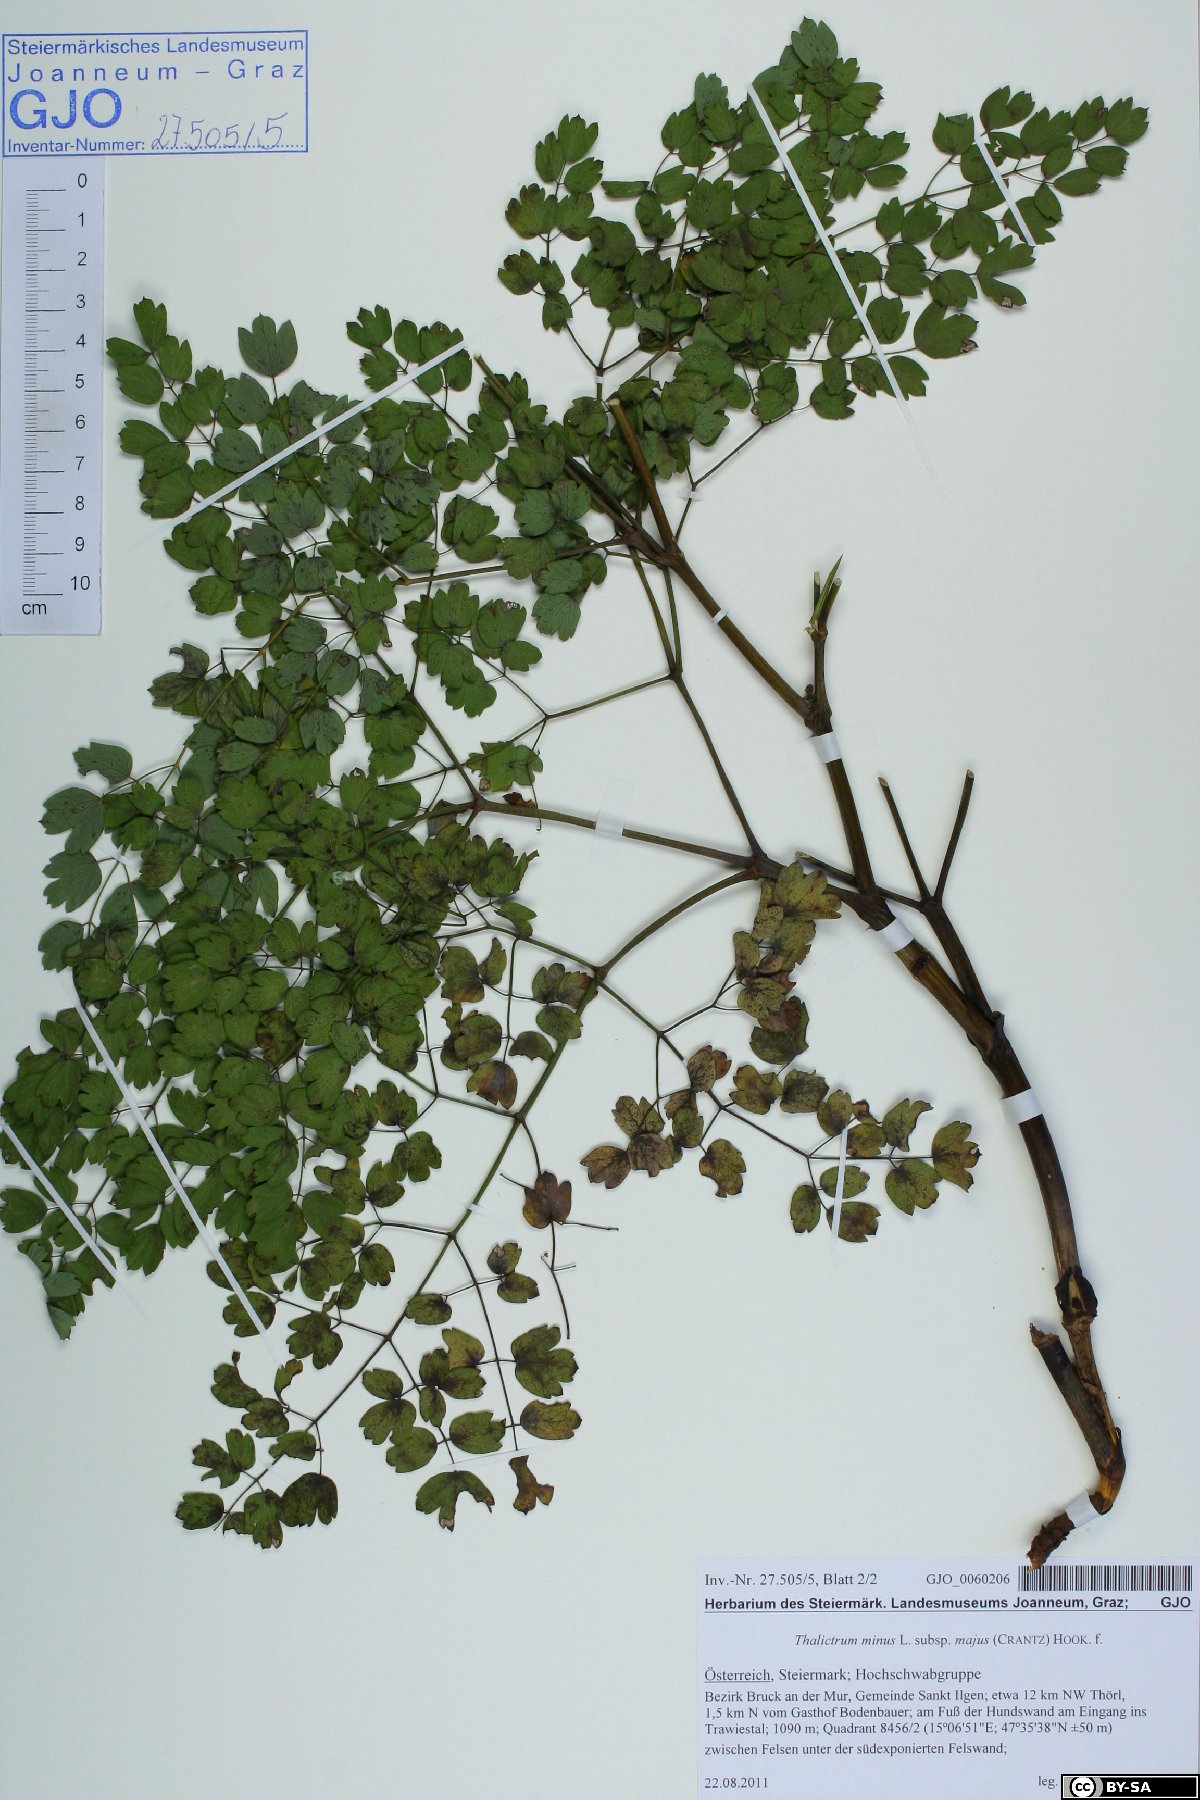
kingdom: Plantae
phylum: Tracheophyta
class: Magnoliopsida
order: Ranunculales
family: Ranunculaceae
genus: Thalictrum
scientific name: Thalictrum minus
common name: Lesser meadow-rue
